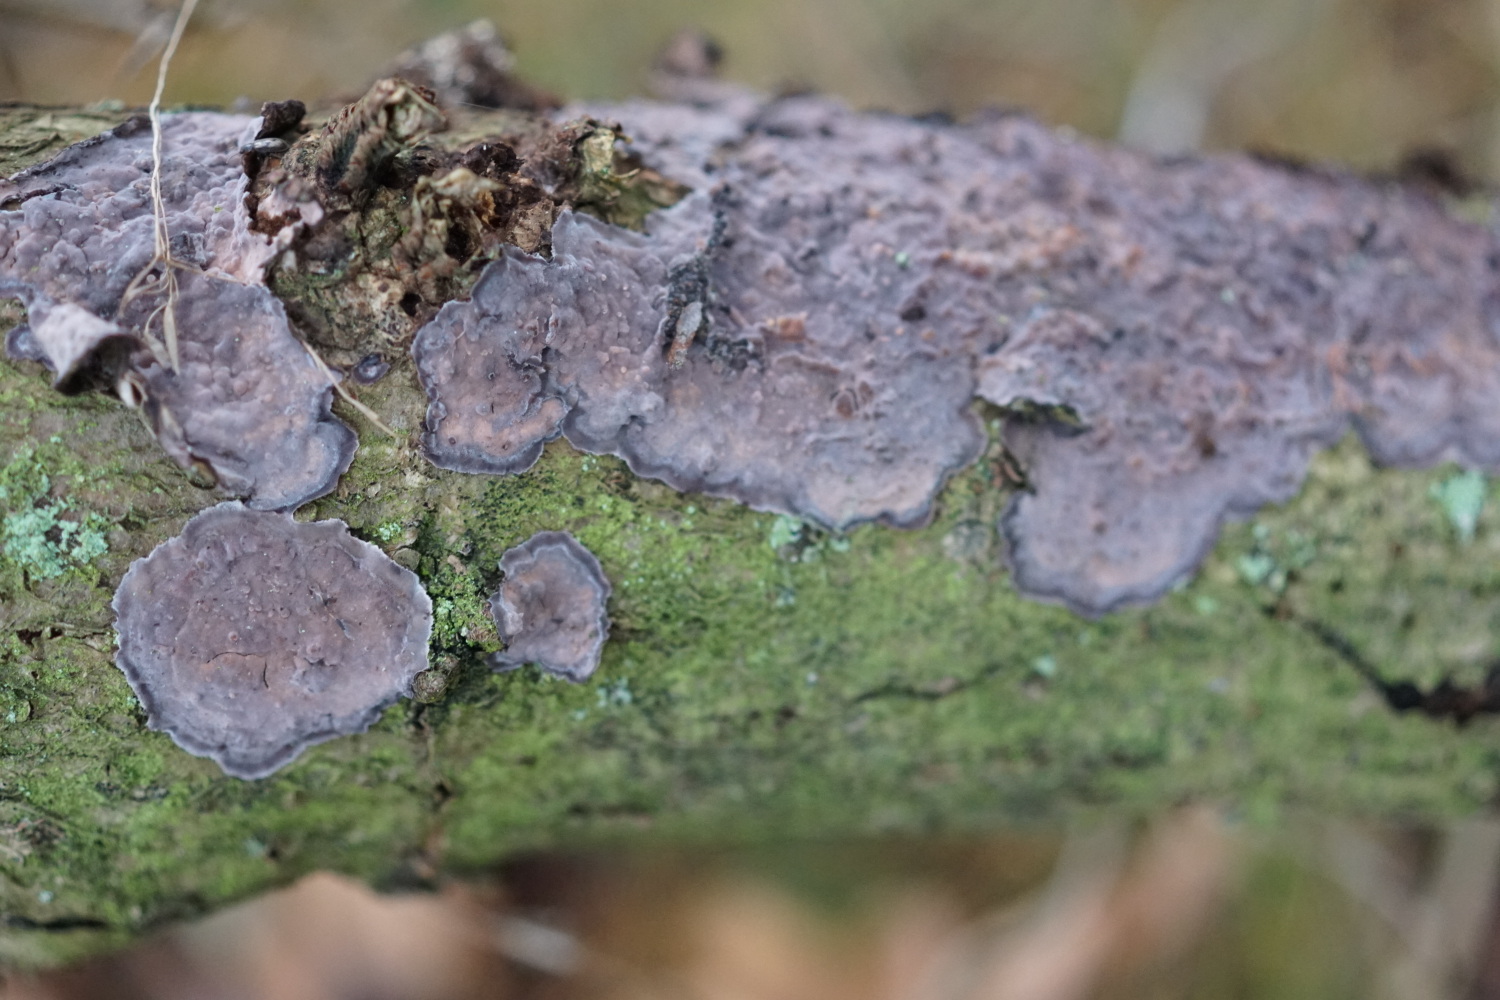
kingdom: Fungi
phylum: Basidiomycota
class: Agaricomycetes
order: Russulales
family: Peniophoraceae
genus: Peniophora
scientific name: Peniophora quercina
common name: ege-voksskind
